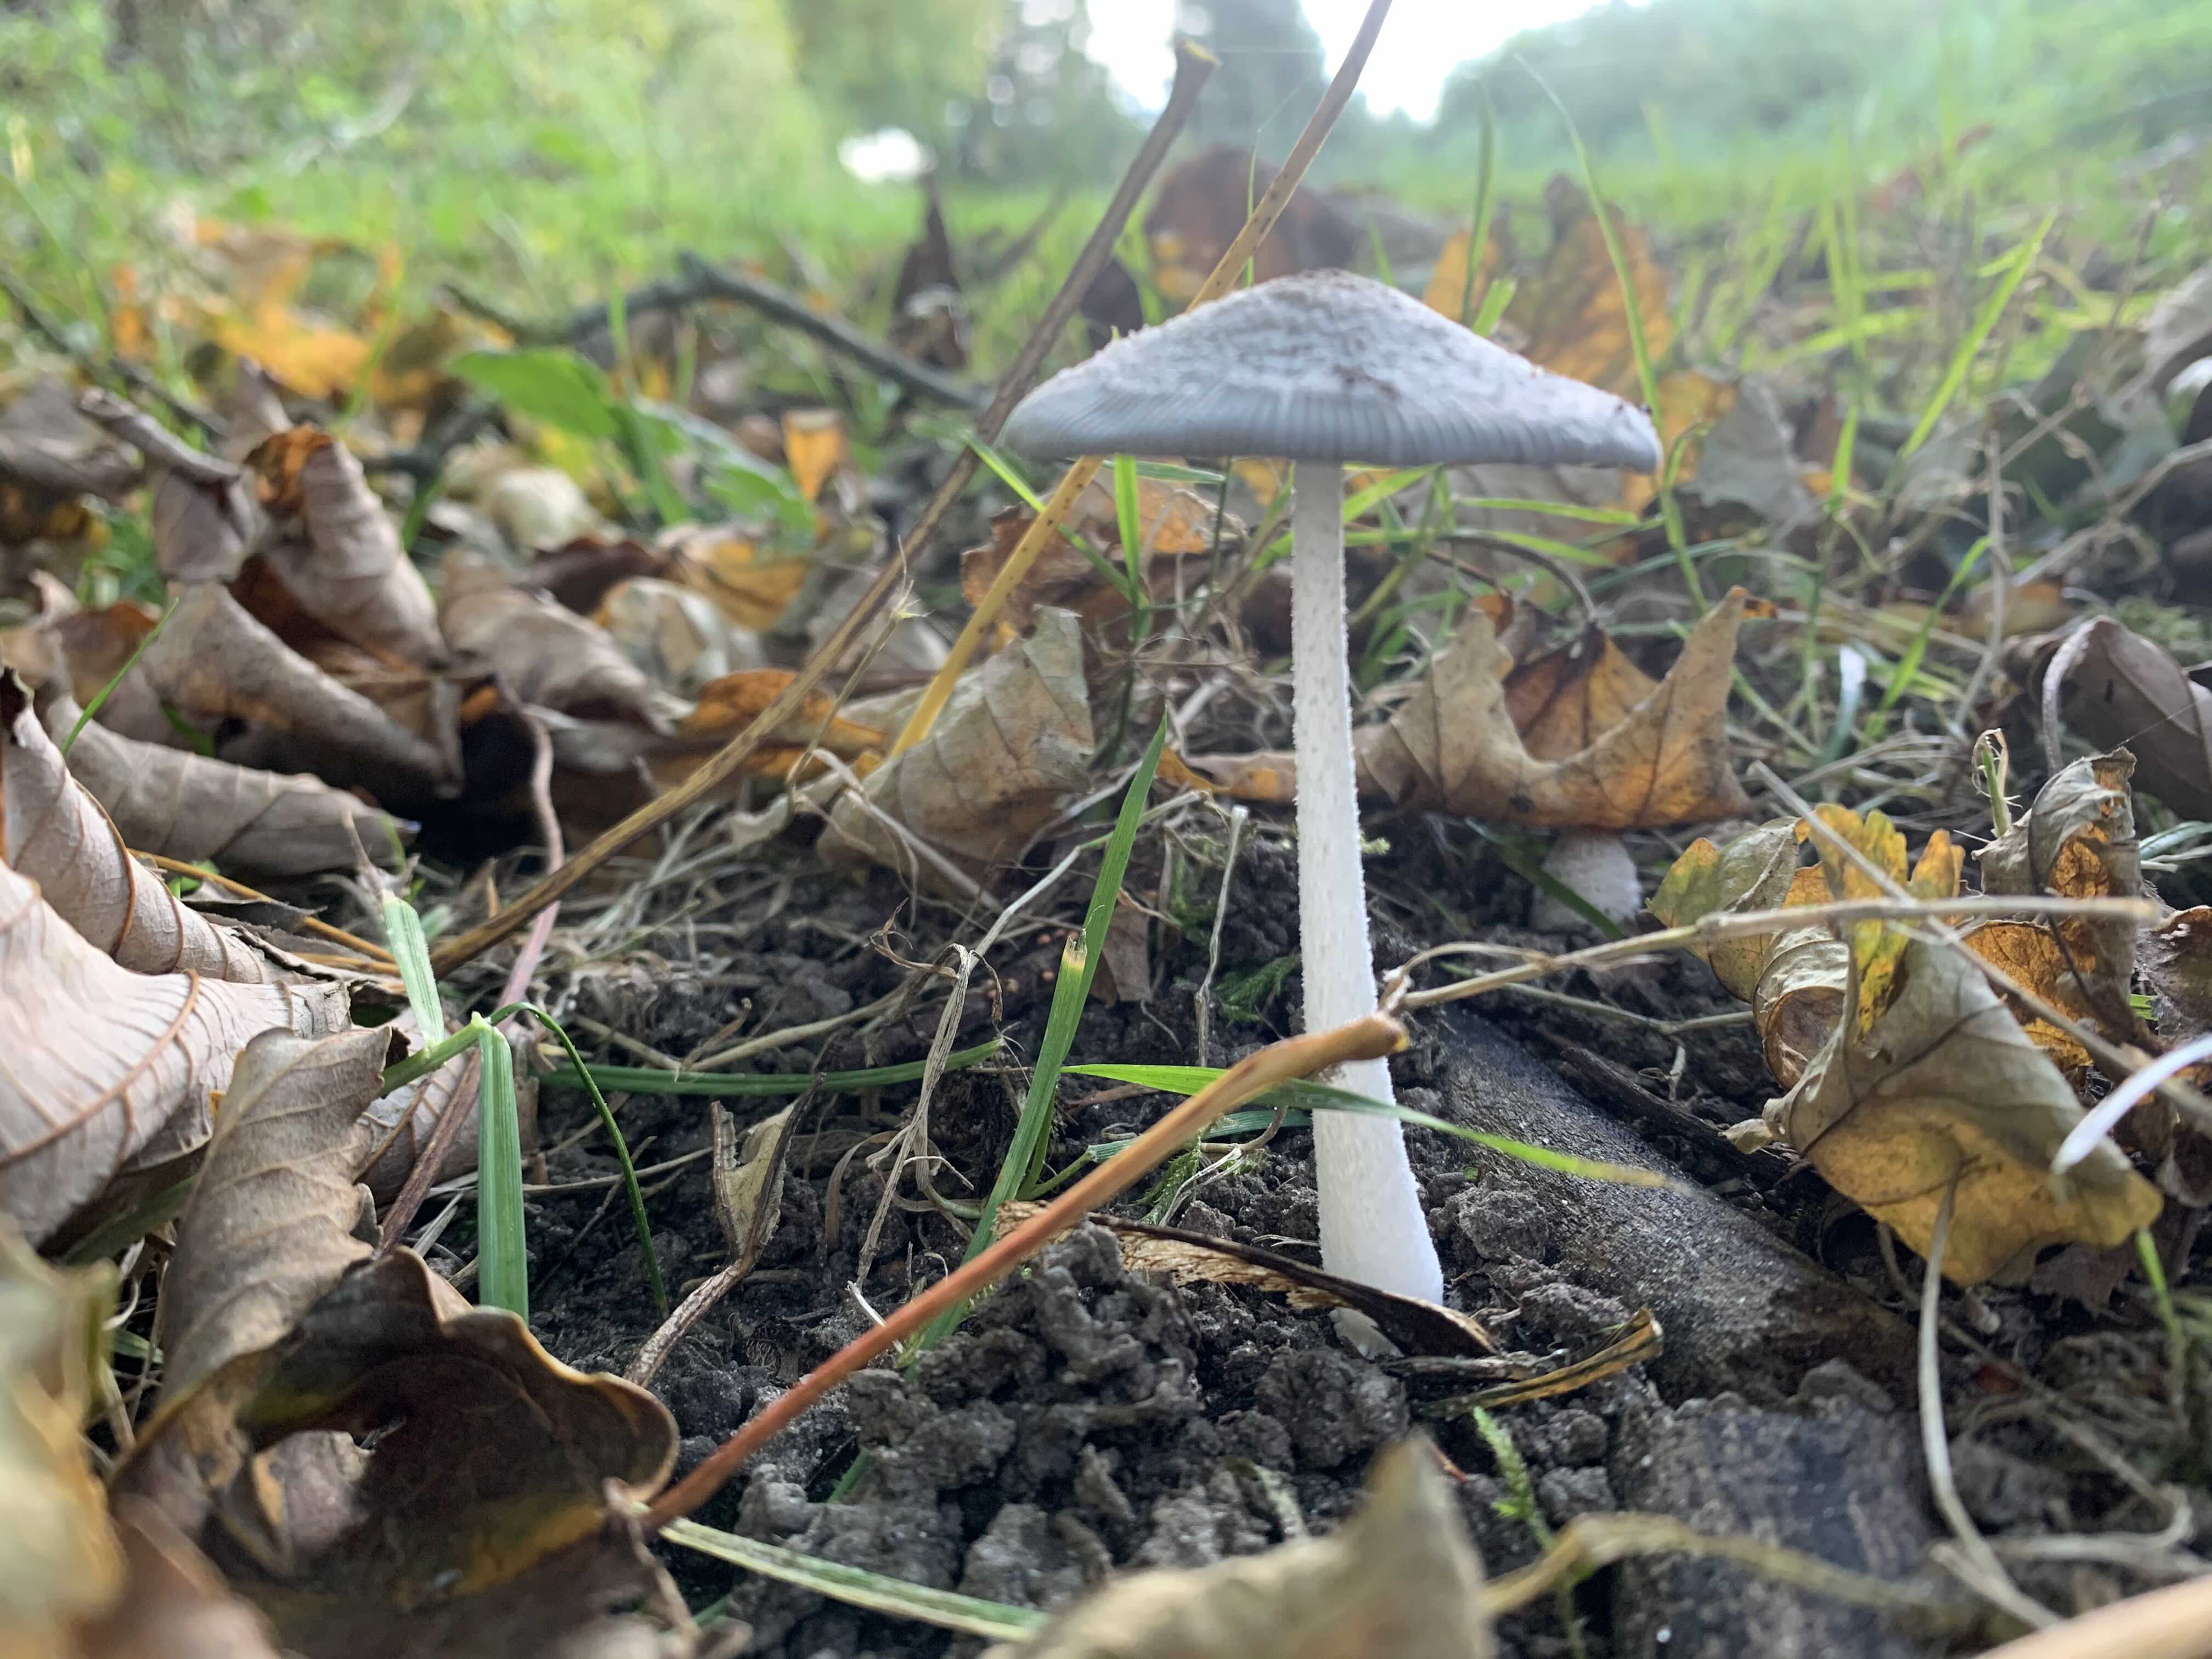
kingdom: Fungi
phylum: Basidiomycota
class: Agaricomycetes
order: Agaricales
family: Psathyrellaceae
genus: Coprinopsis
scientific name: Coprinopsis lagopus
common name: dunstokket blækhat
